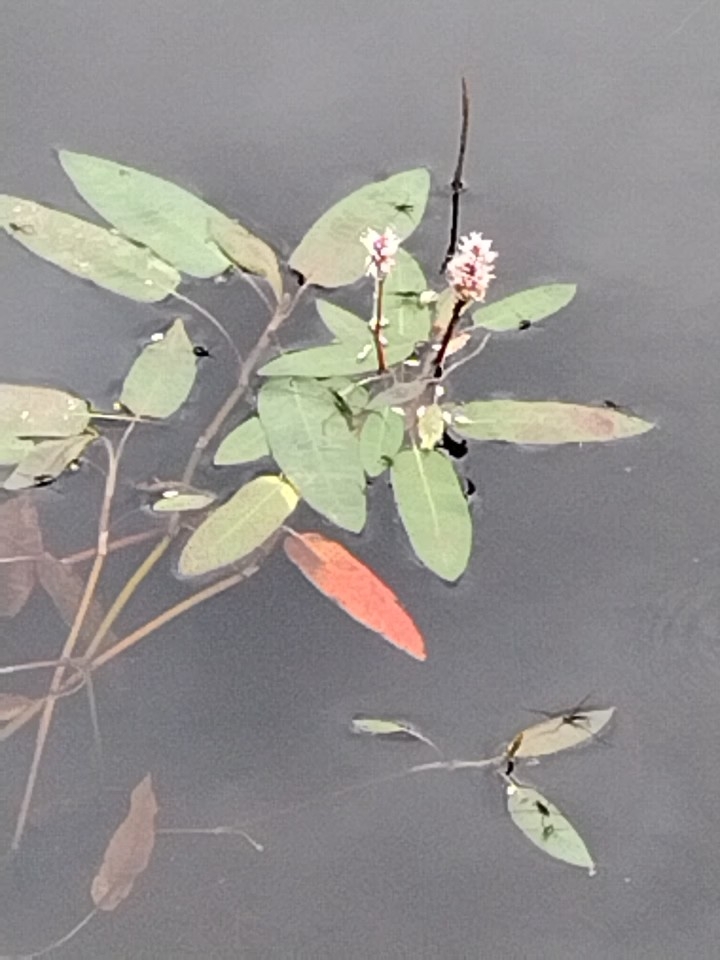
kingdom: Plantae
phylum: Tracheophyta
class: Magnoliopsida
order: Caryophyllales
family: Polygonaceae
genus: Persicaria
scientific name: Persicaria amphibia
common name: Vand-pileurt
